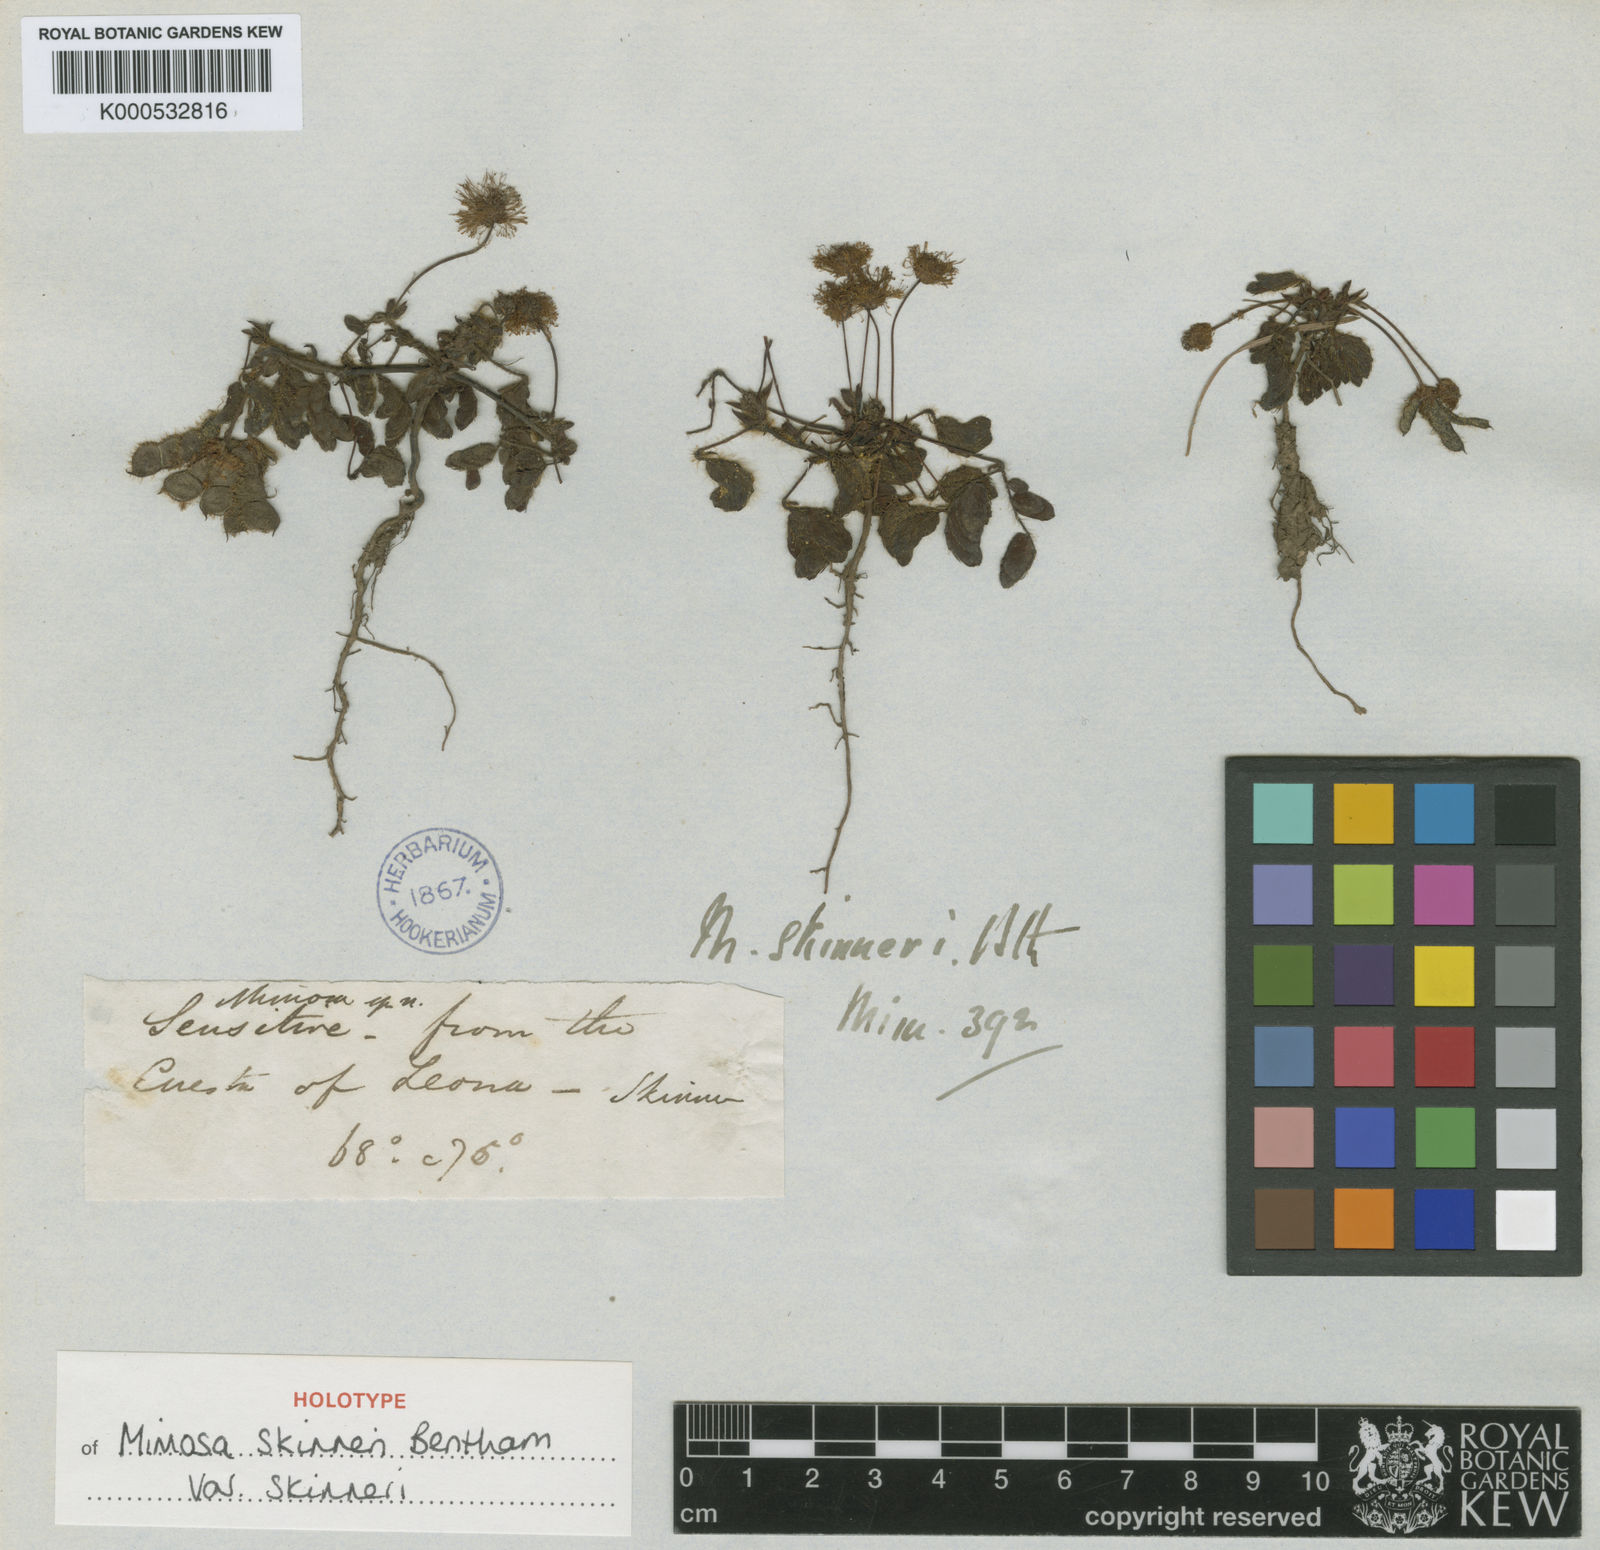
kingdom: Plantae
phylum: Tracheophyta
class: Magnoliopsida
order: Fabales
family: Fabaceae
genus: Mimosa
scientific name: Mimosa skinneri
